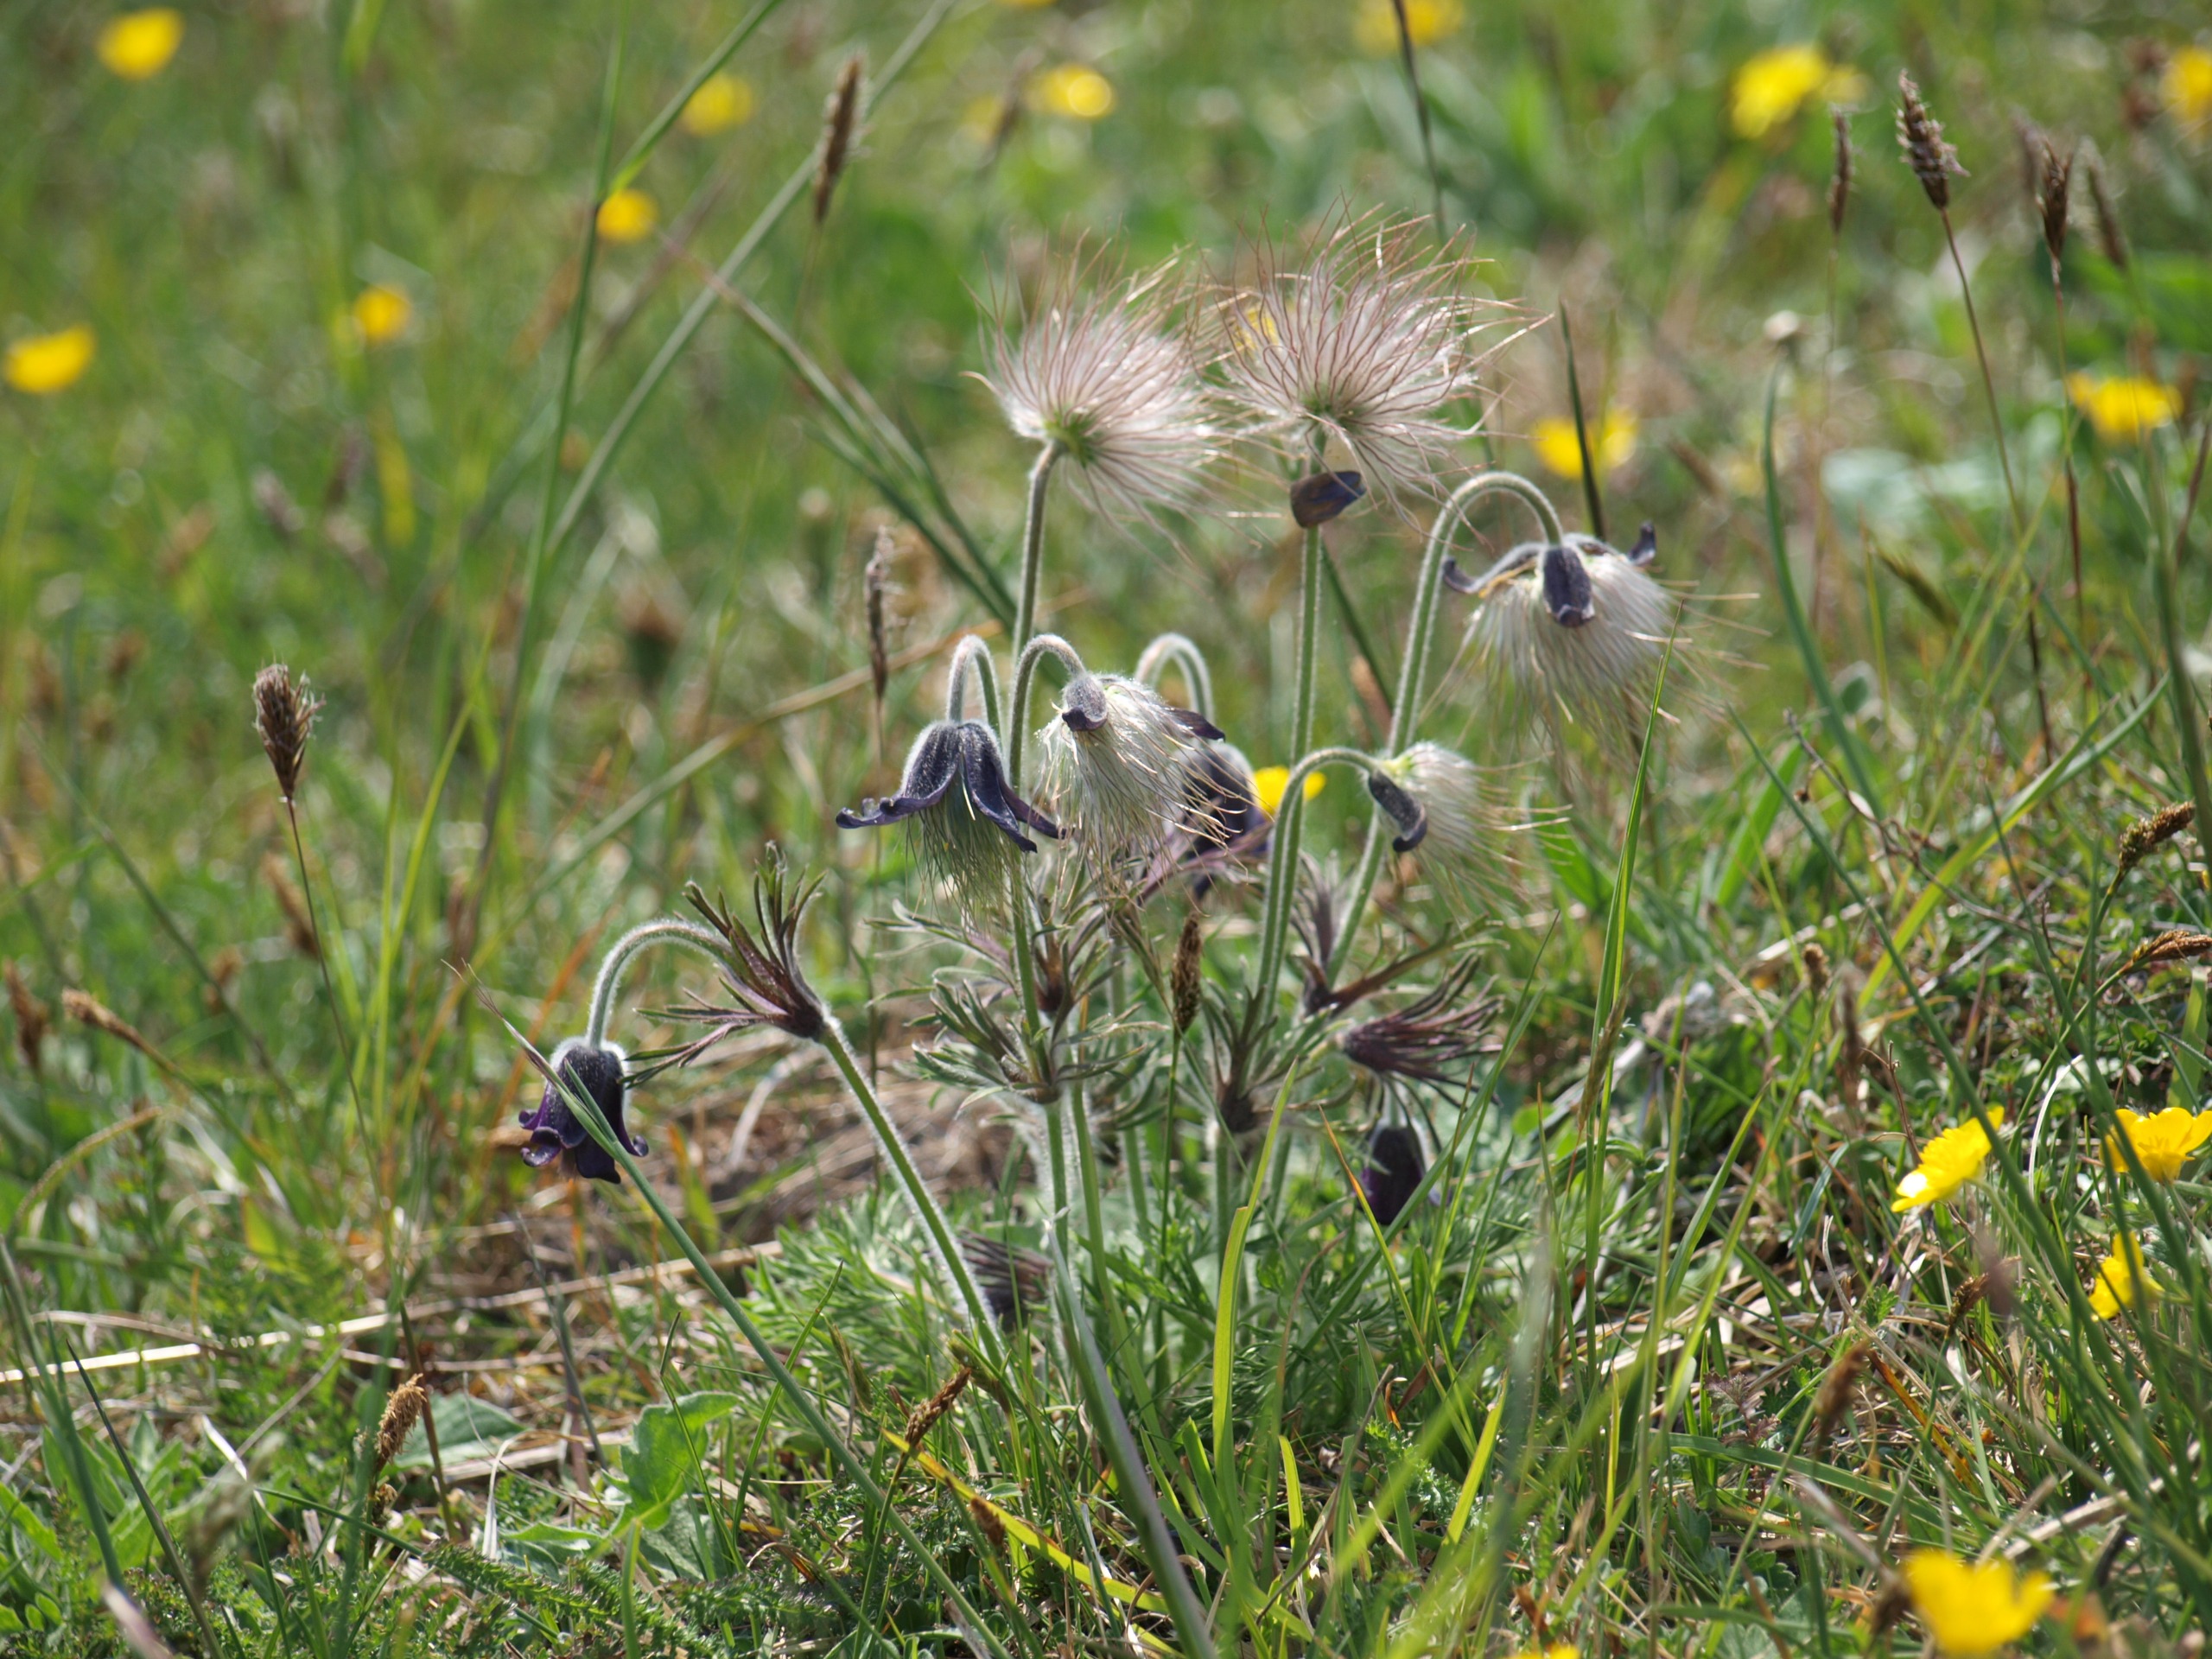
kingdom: Plantae
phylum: Tracheophyta
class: Magnoliopsida
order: Ranunculales
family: Ranunculaceae
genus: Pulsatilla
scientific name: Pulsatilla pratensis
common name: Nikkende kobjælde
